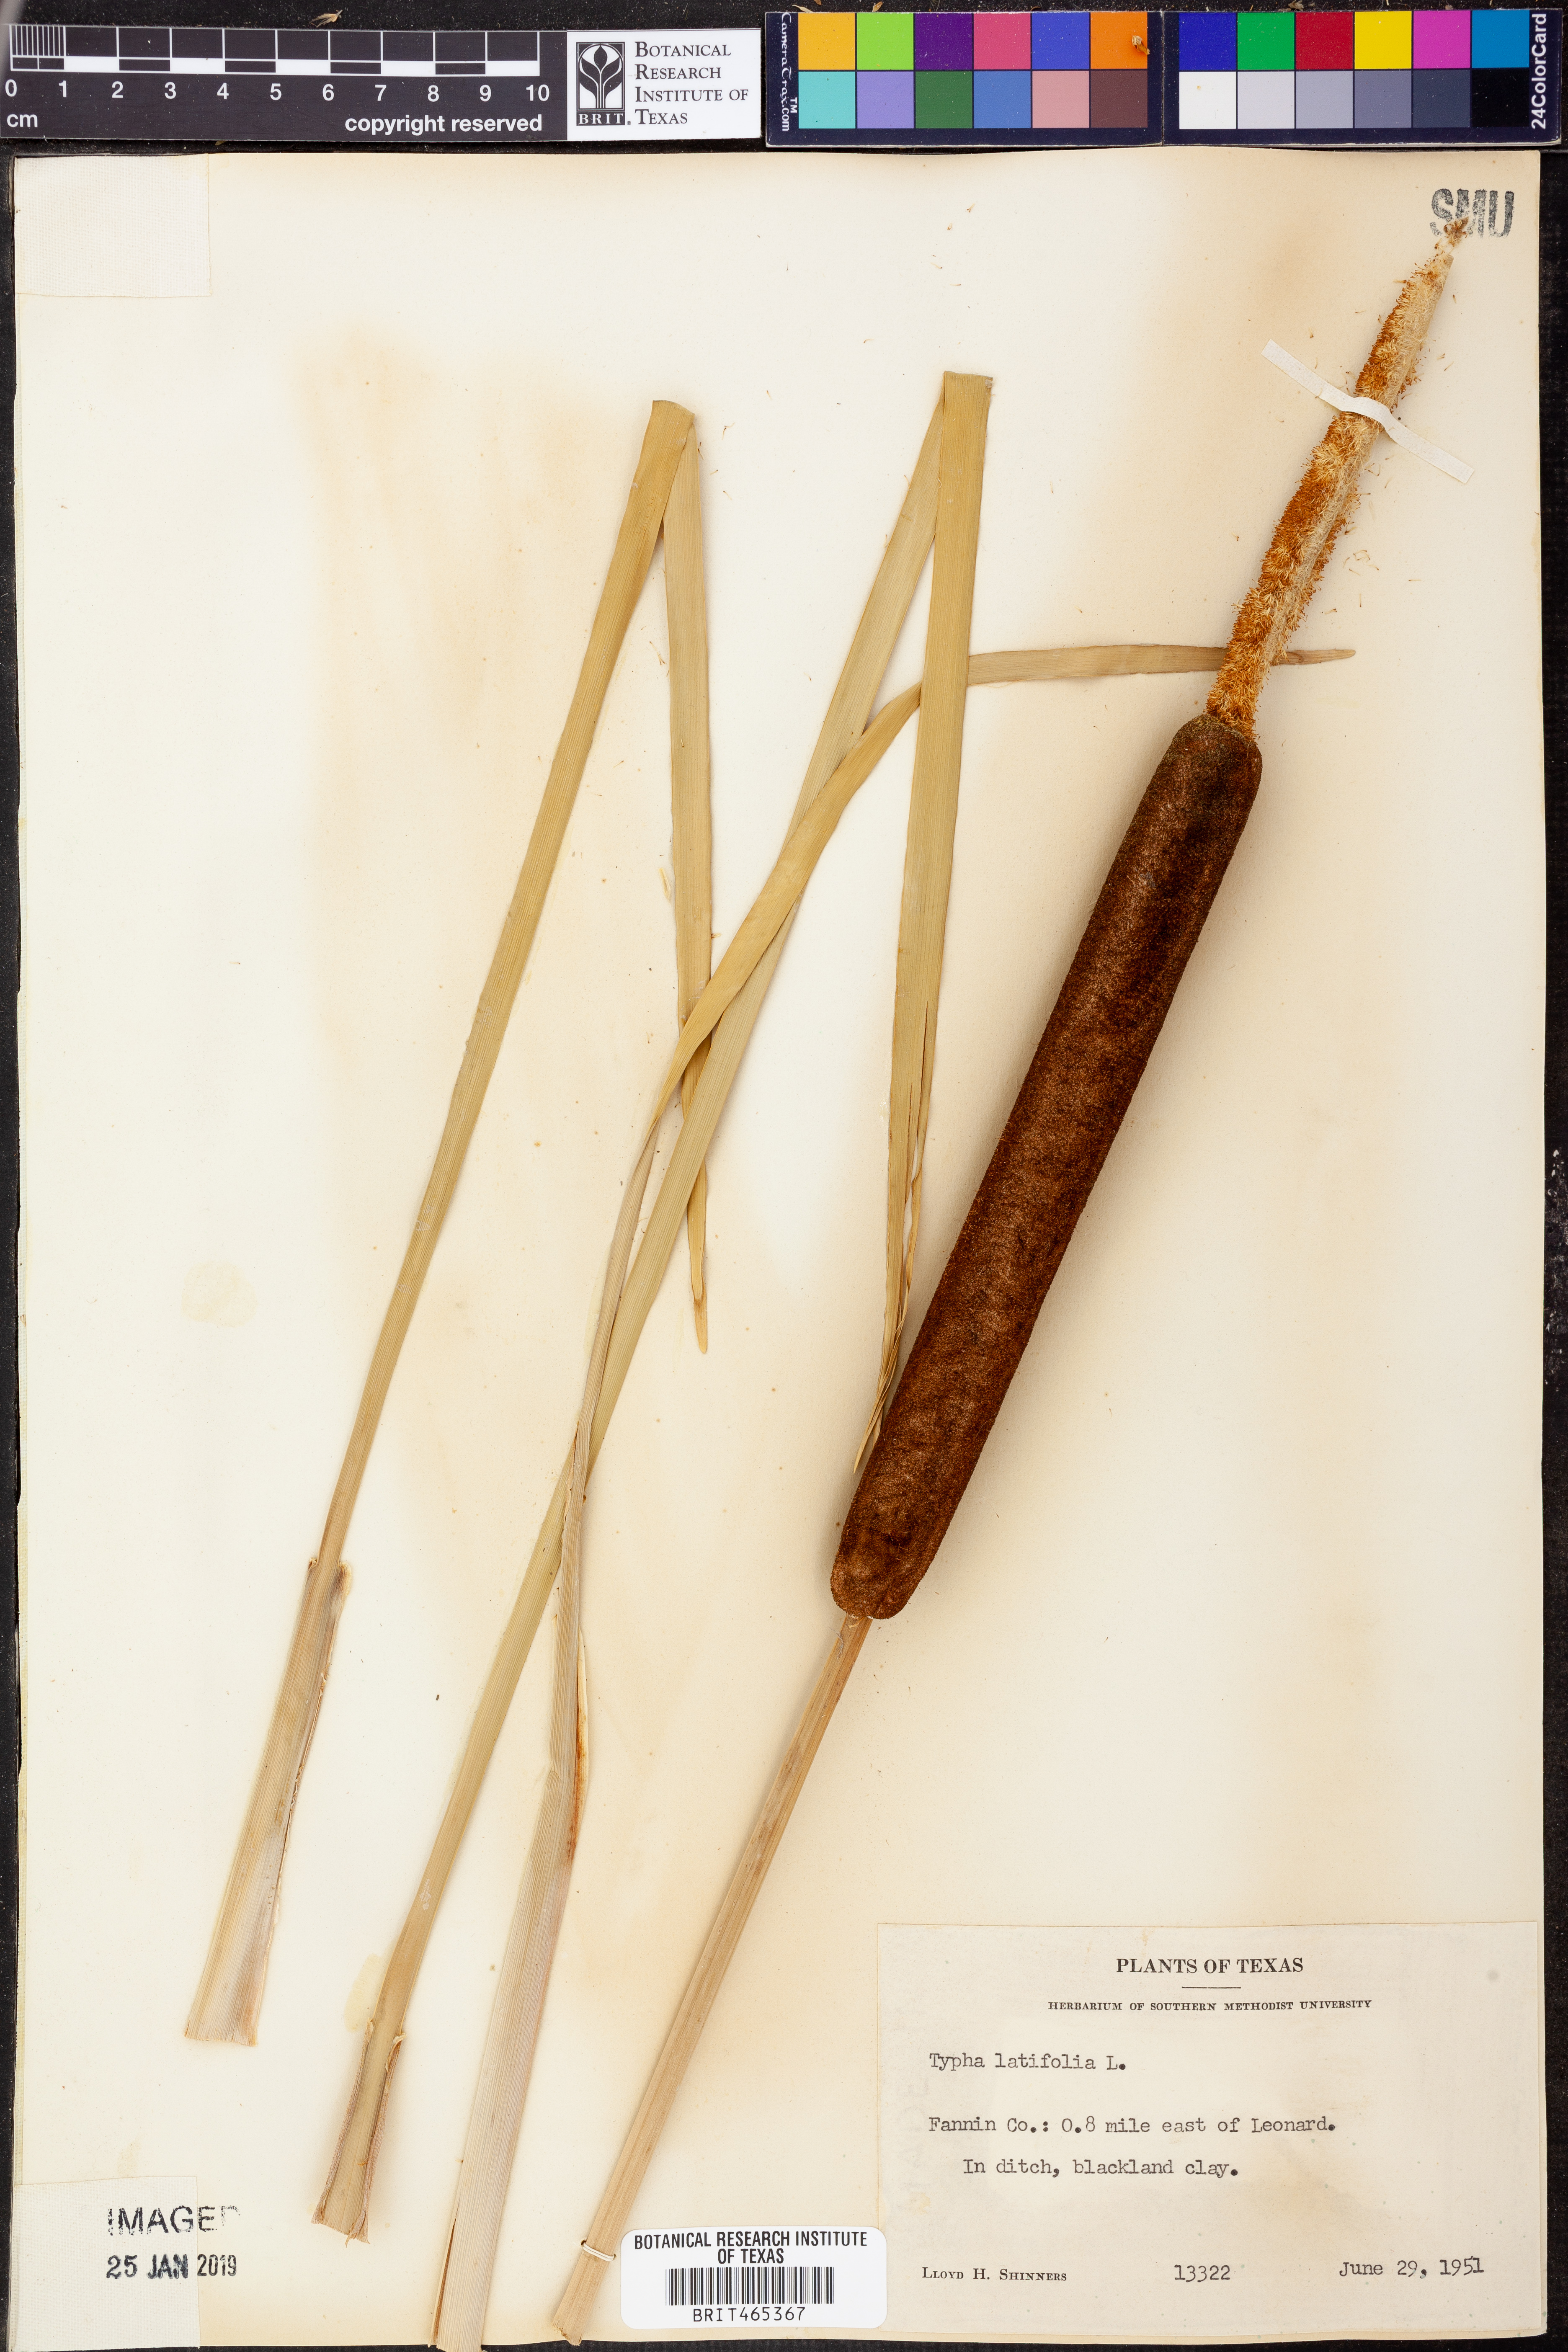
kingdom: Plantae
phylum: Tracheophyta
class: Liliopsida
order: Poales
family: Typhaceae
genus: Typha
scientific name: Typha latifolia
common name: Broadleaf cattail
